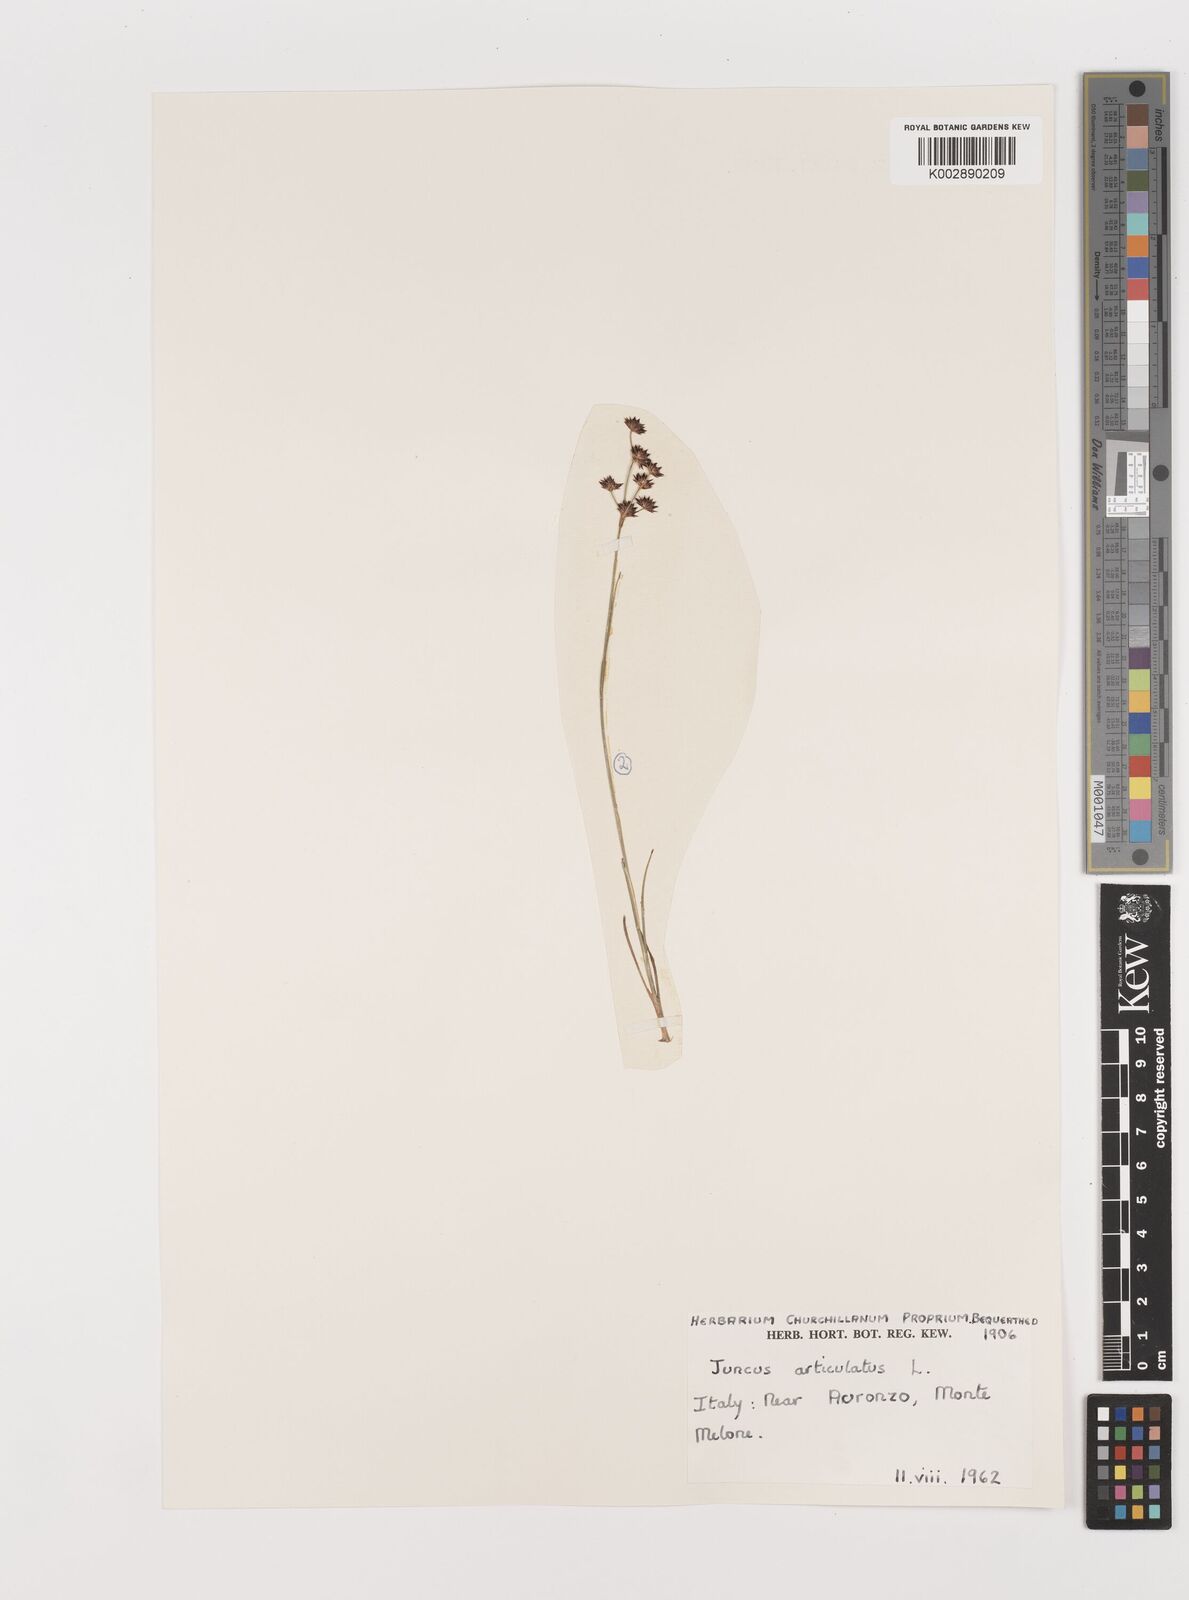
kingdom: Plantae
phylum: Tracheophyta
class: Liliopsida
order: Poales
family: Juncaceae
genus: Juncus
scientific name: Juncus articulatus
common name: Jointed rush
